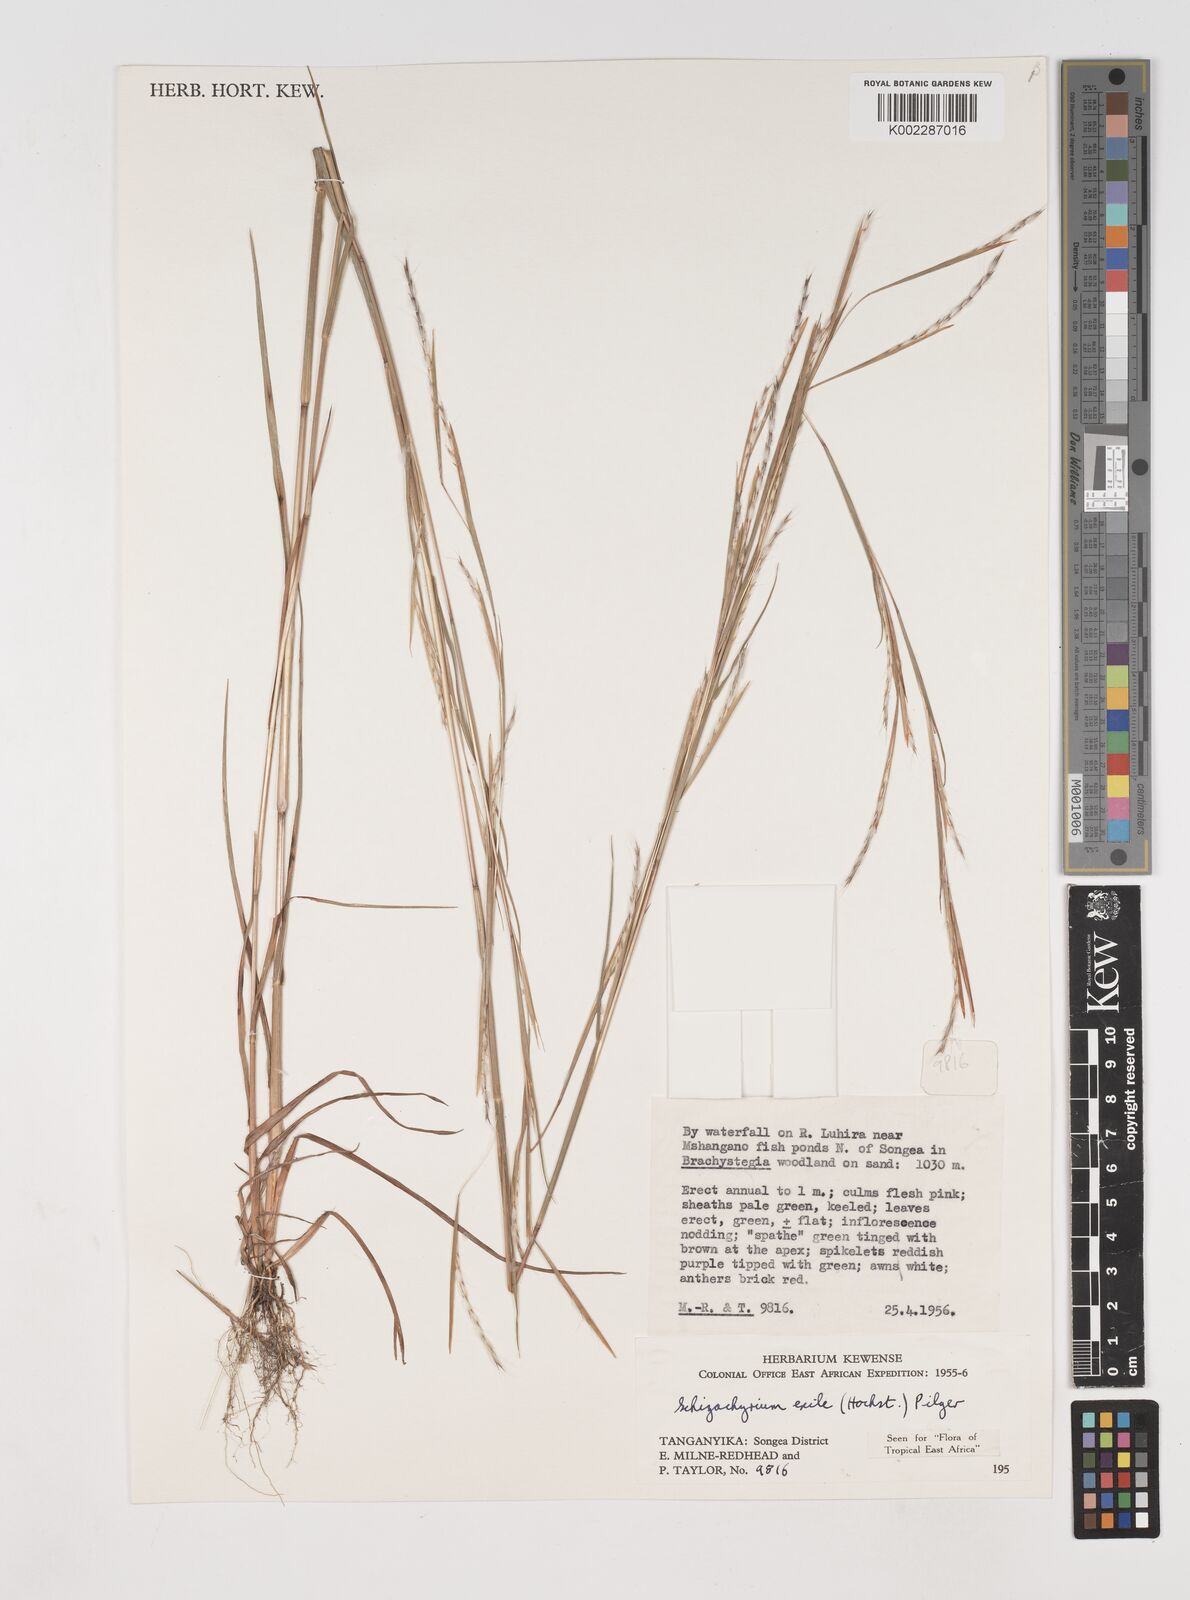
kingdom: Plantae
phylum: Tracheophyta
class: Liliopsida
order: Poales
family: Poaceae
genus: Schizachyrium
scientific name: Schizachyrium exile
